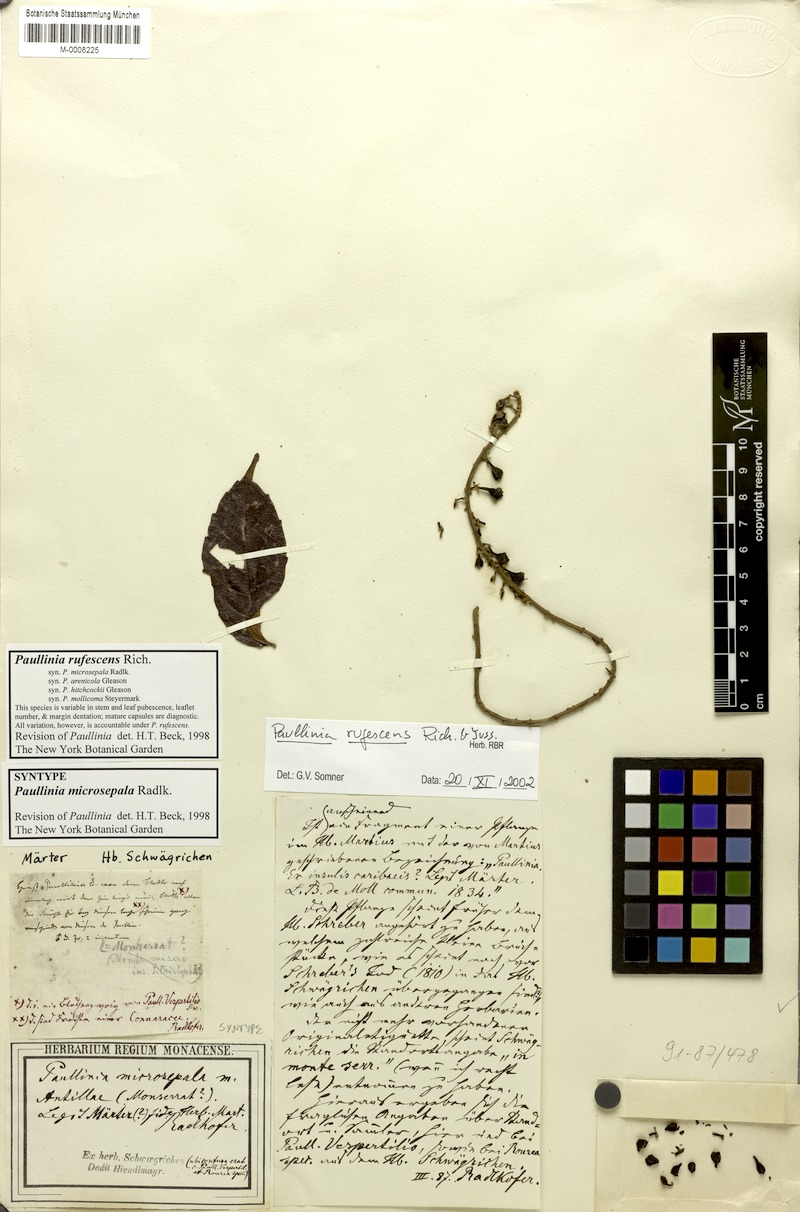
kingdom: Plantae
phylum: Tracheophyta
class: Magnoliopsida
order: Sapindales
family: Sapindaceae
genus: Paullinia
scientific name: Paullinia rufescens
